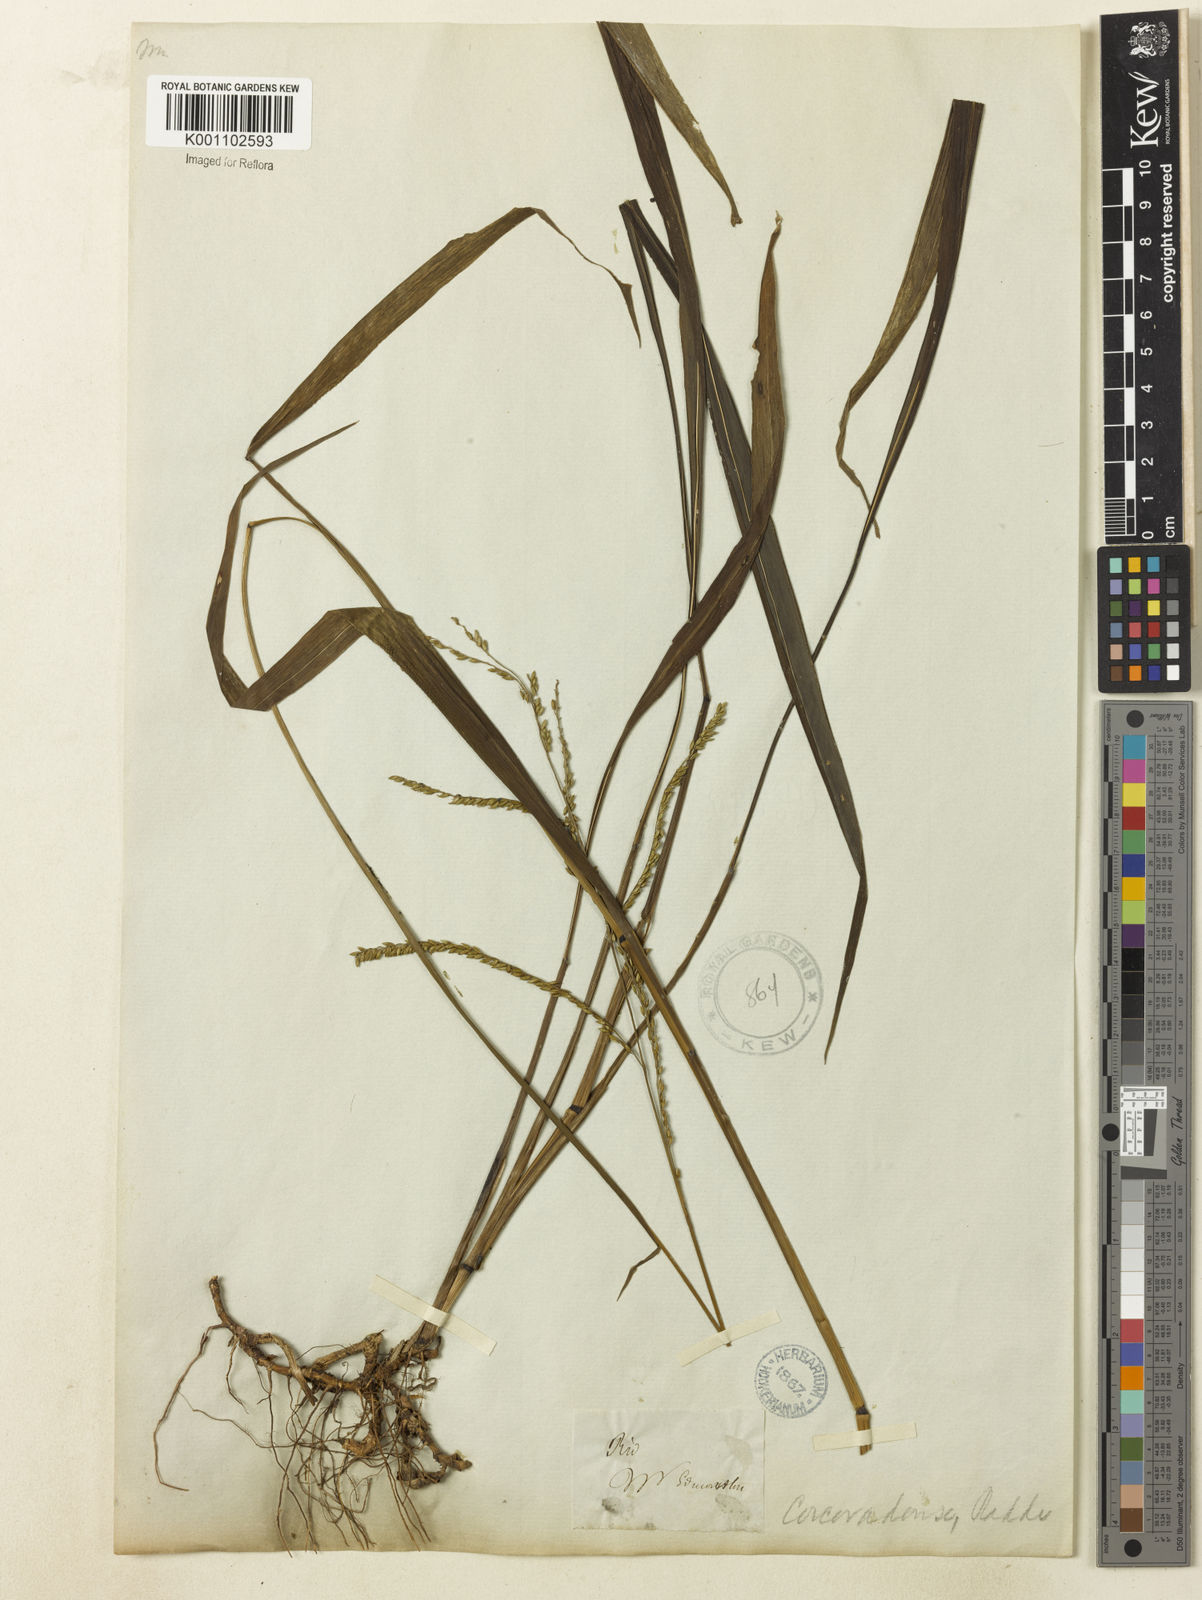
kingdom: Plantae
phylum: Tracheophyta
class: Liliopsida
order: Poales
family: Poaceae
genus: Paspalum
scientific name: Paspalum corcovadense
